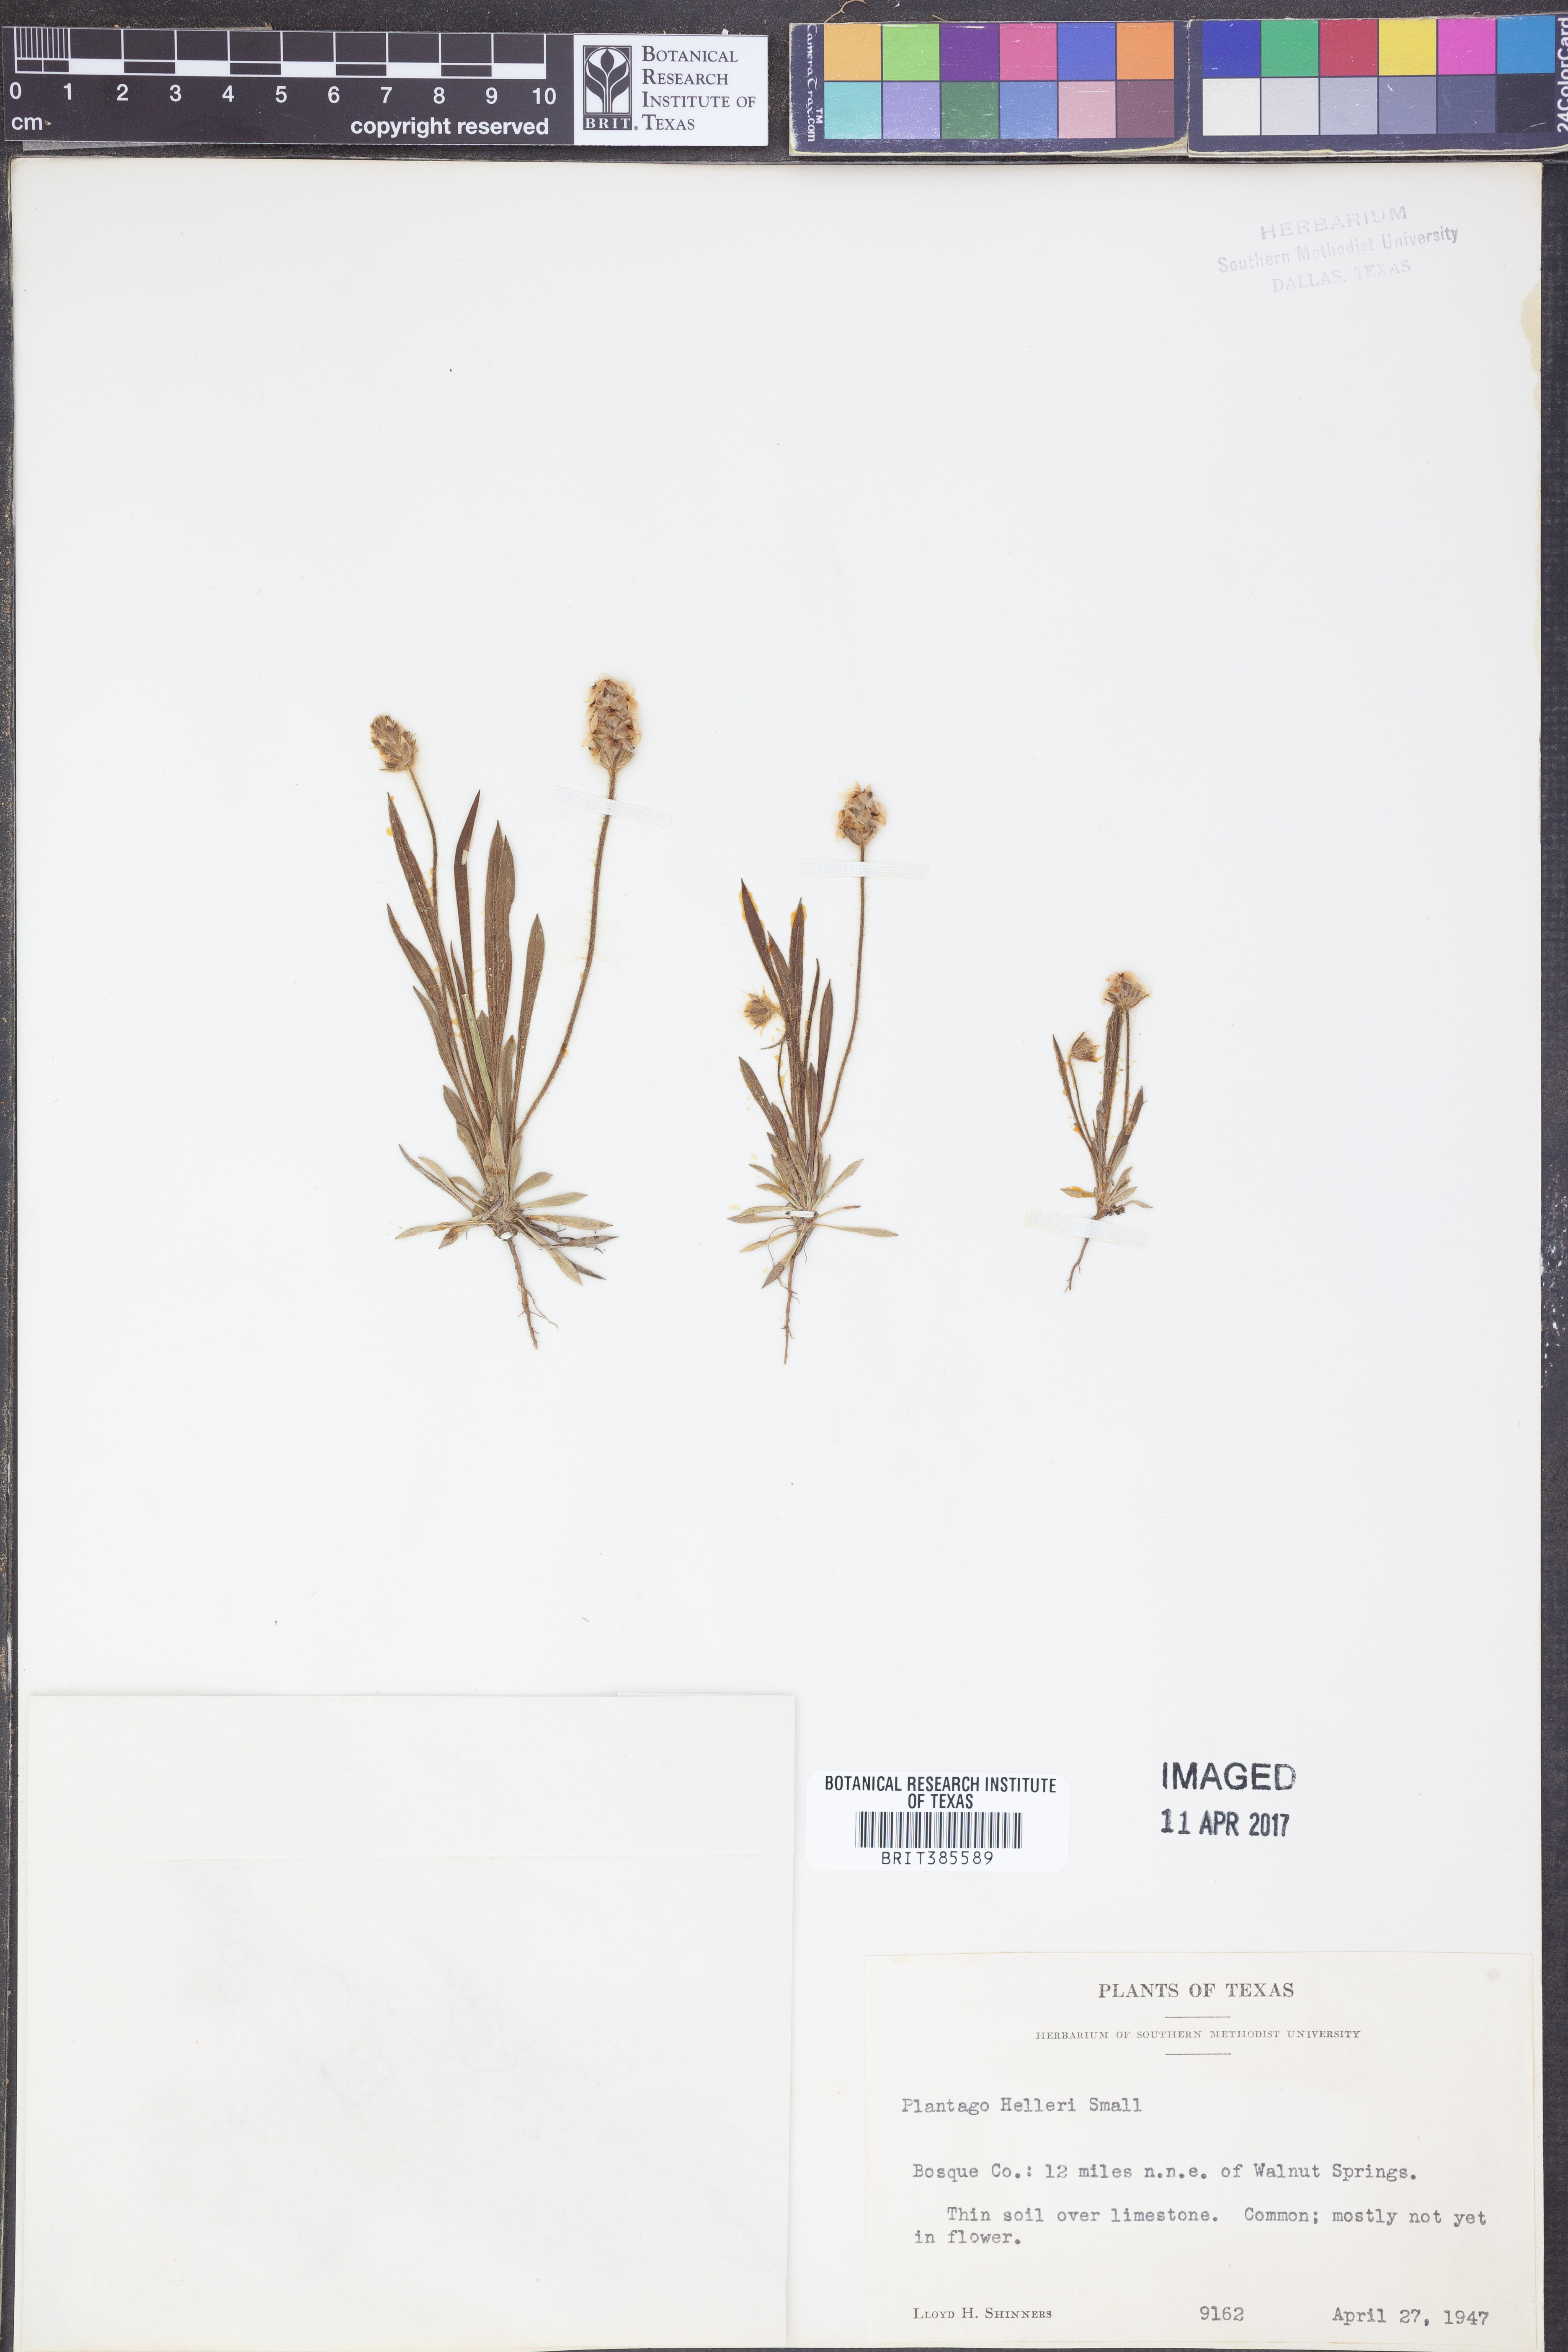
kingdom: Plantae
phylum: Tracheophyta
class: Magnoliopsida
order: Lamiales
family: Plantaginaceae
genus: Plantago
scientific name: Plantago helleri
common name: Heller's plantain
